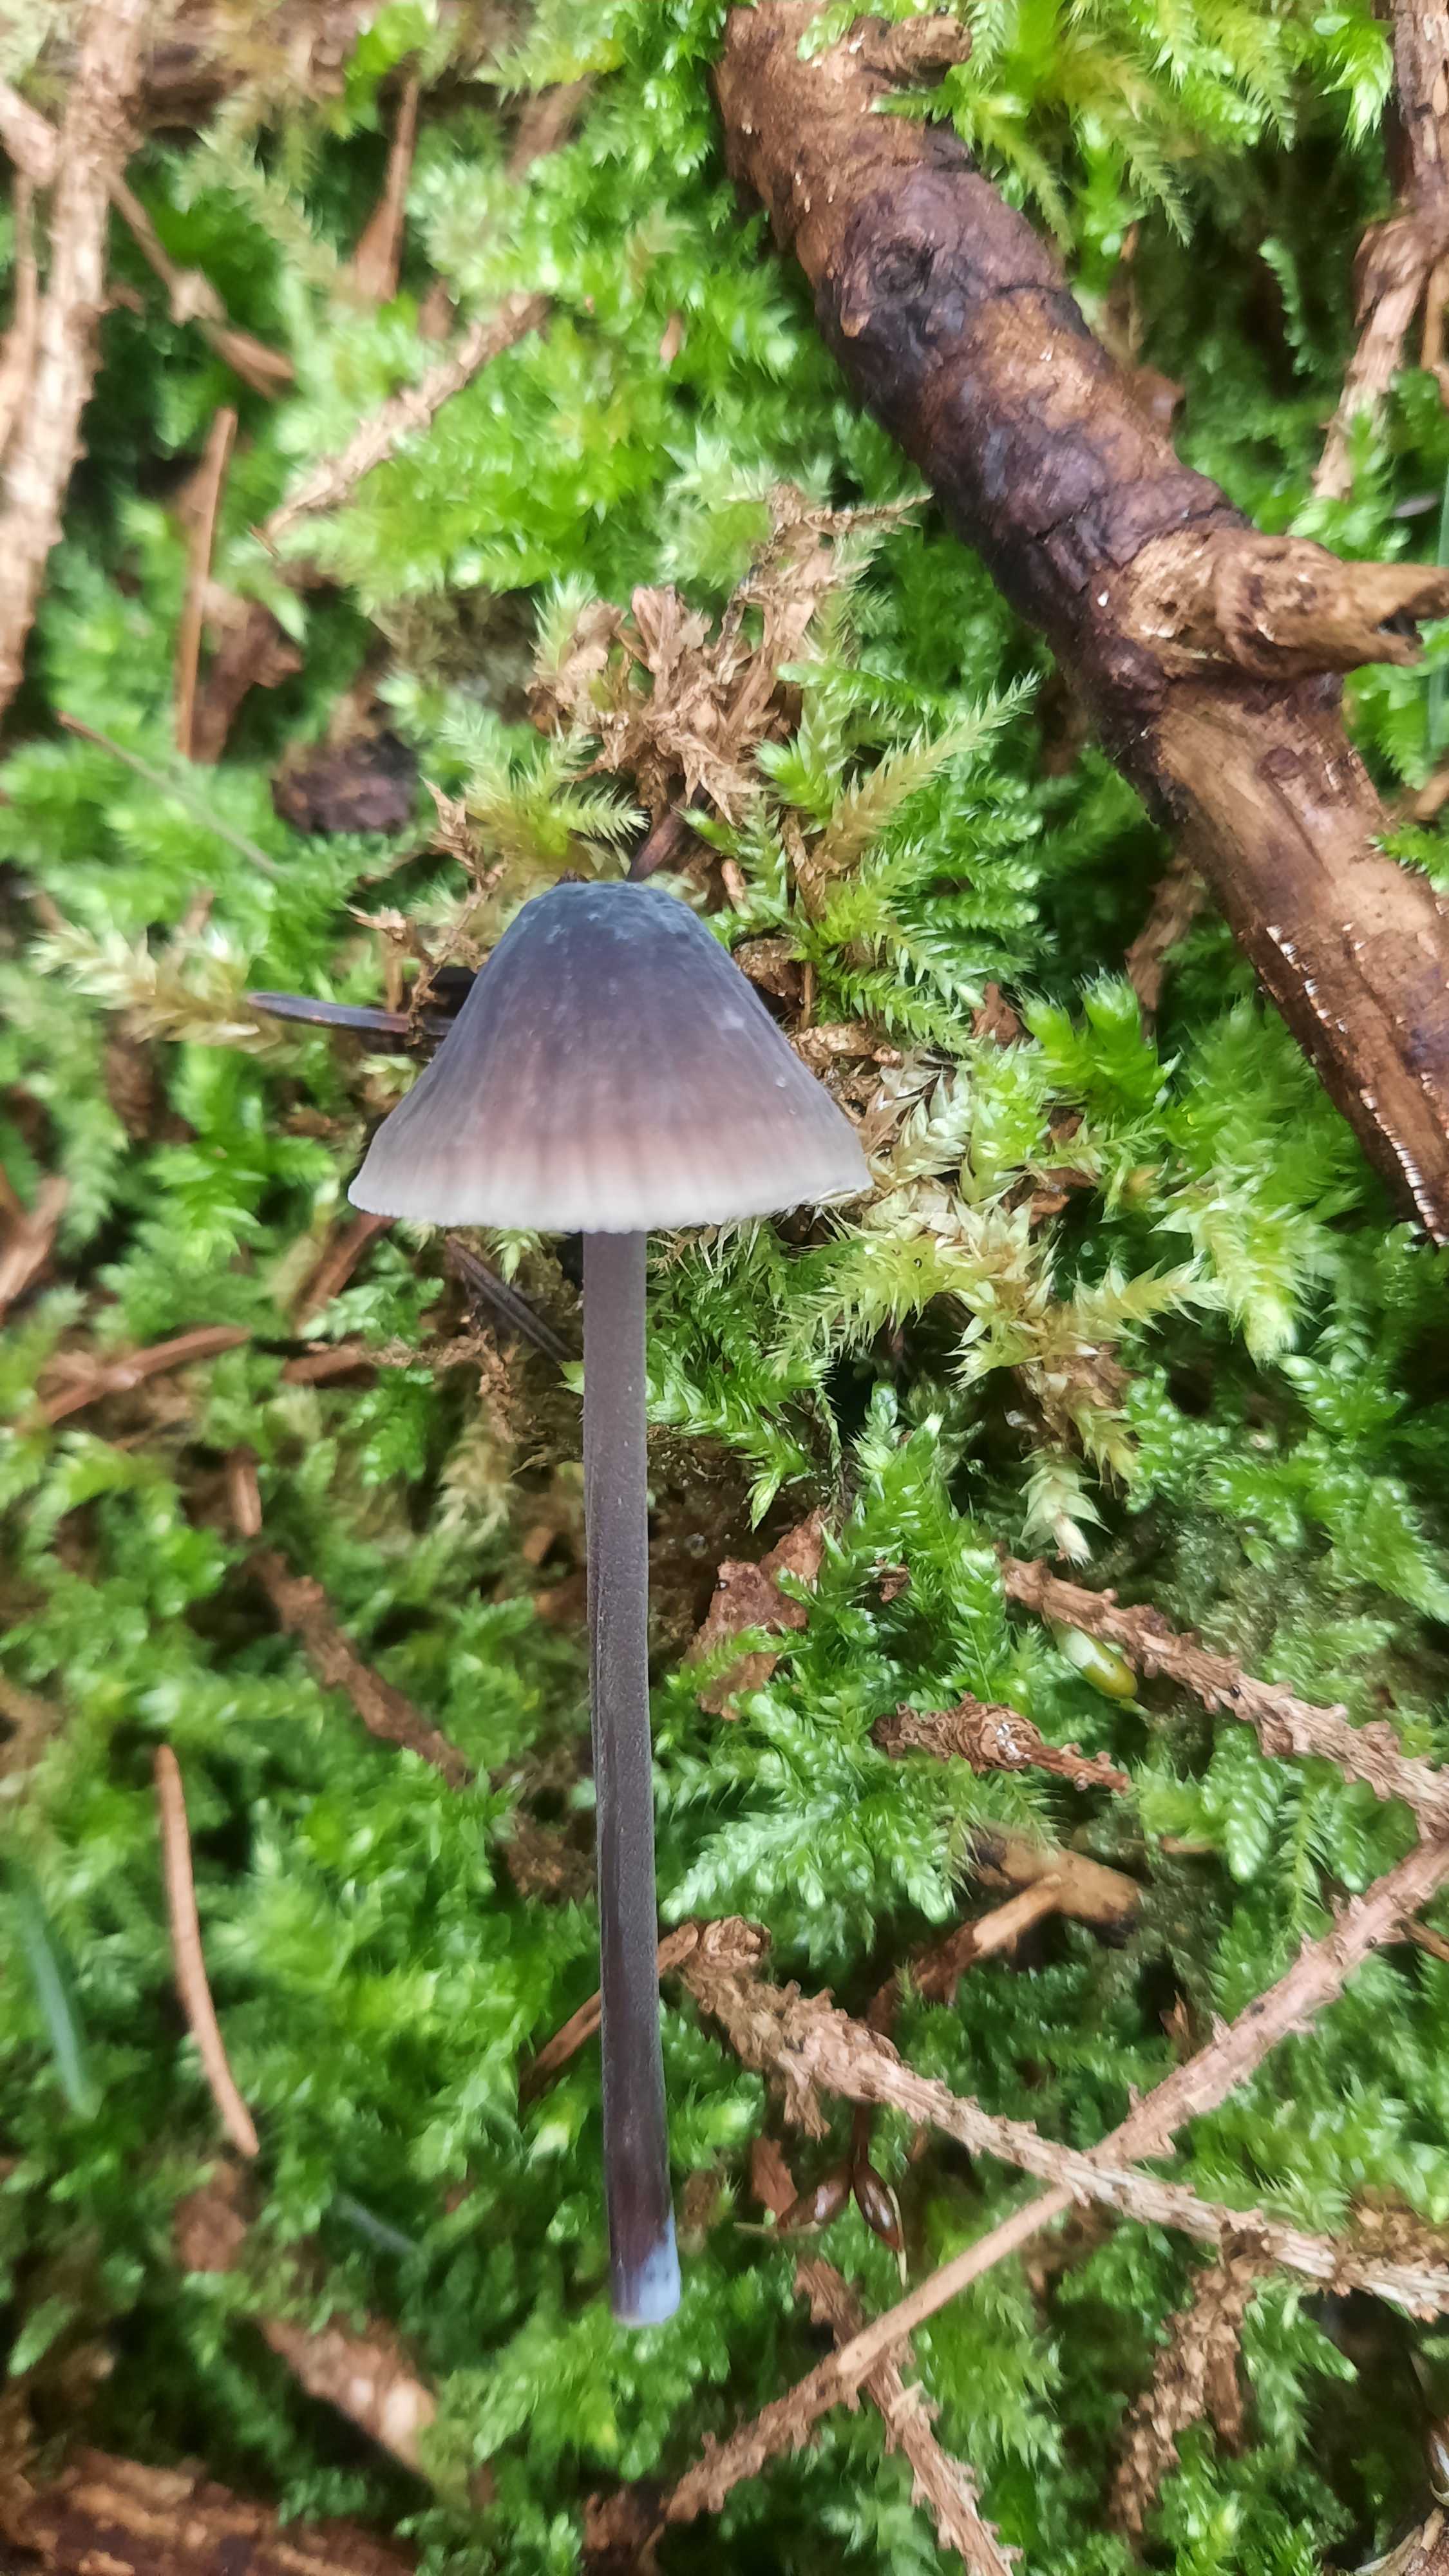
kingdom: Fungi
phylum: Basidiomycota
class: Agaricomycetes
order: Agaricales
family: Mycenaceae
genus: Mycena
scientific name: Mycena galopus
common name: hvidmælket huesvamp
